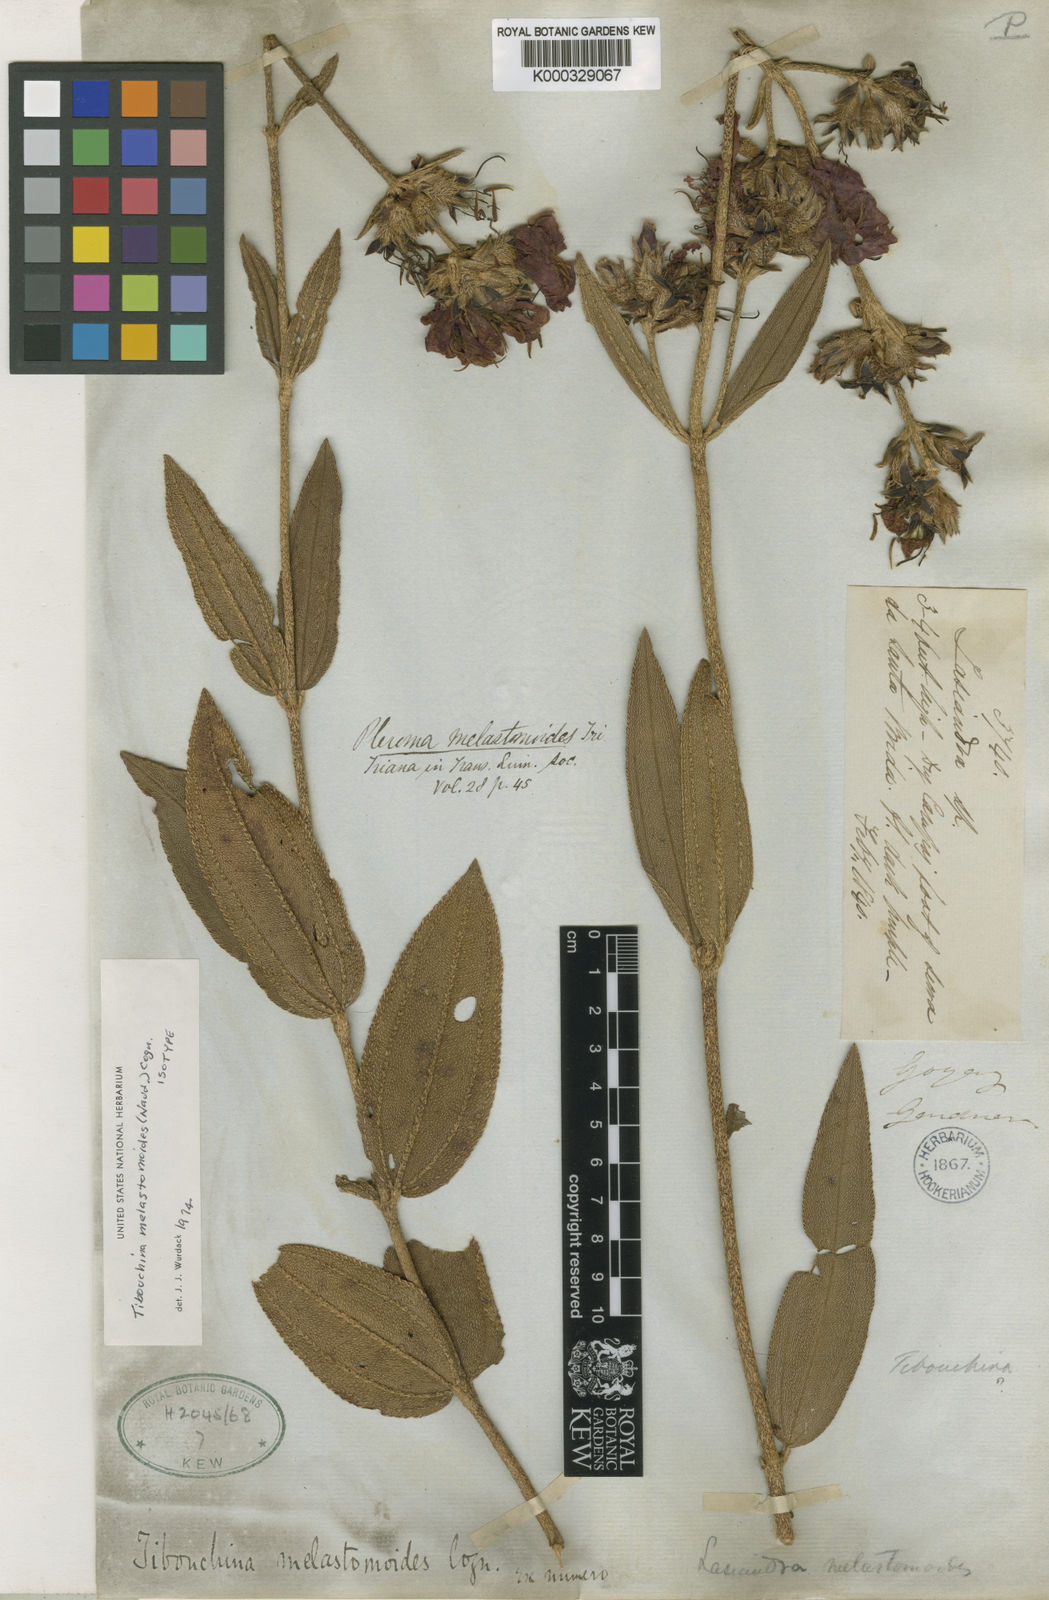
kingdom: Plantae
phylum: Tracheophyta
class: Magnoliopsida
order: Myrtales
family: Melastomataceae
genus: Pleroma
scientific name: Pleroma melastomoides
